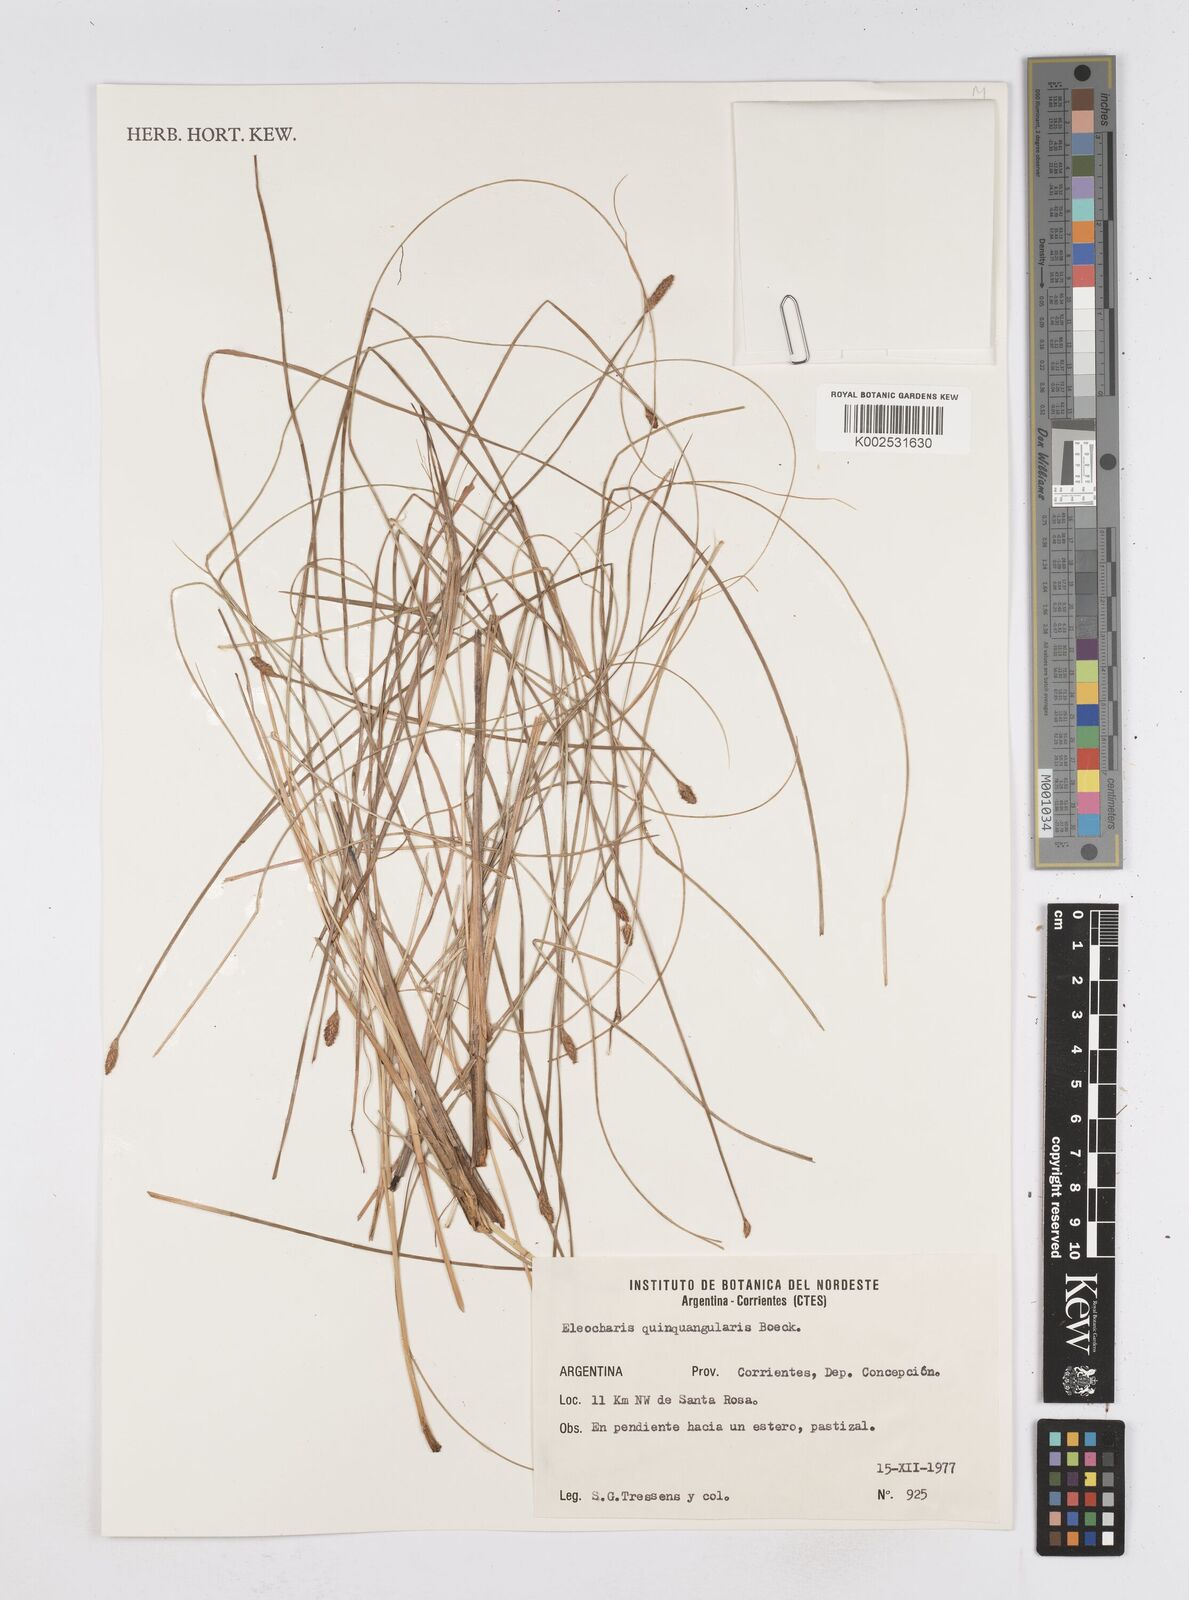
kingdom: Plantae
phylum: Tracheophyta
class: Liliopsida
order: Poales
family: Cyperaceae
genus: Eleocharis
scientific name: Eleocharis emarginata
